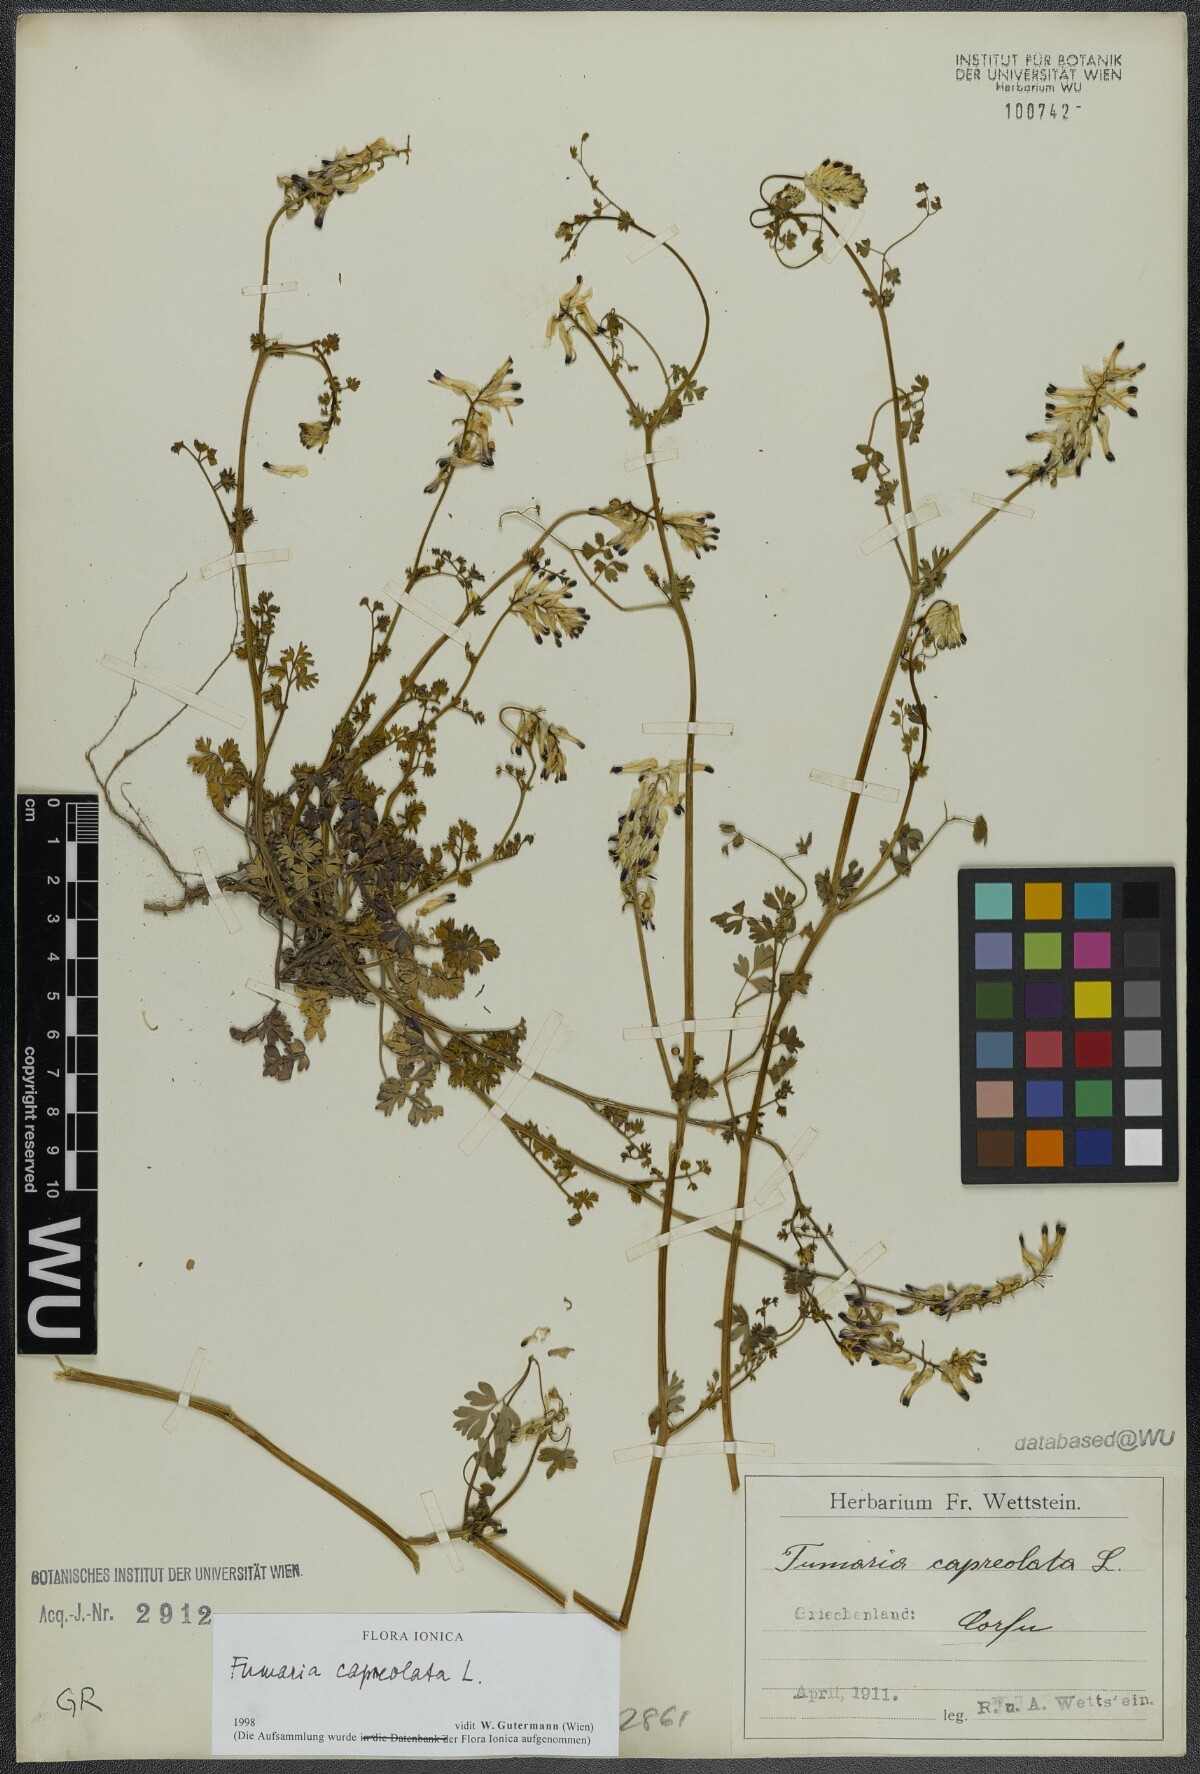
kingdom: Plantae
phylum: Tracheophyta
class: Magnoliopsida
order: Ranunculales
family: Papaveraceae
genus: Fumaria
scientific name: Fumaria capreolata
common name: White ramping-fumitory
